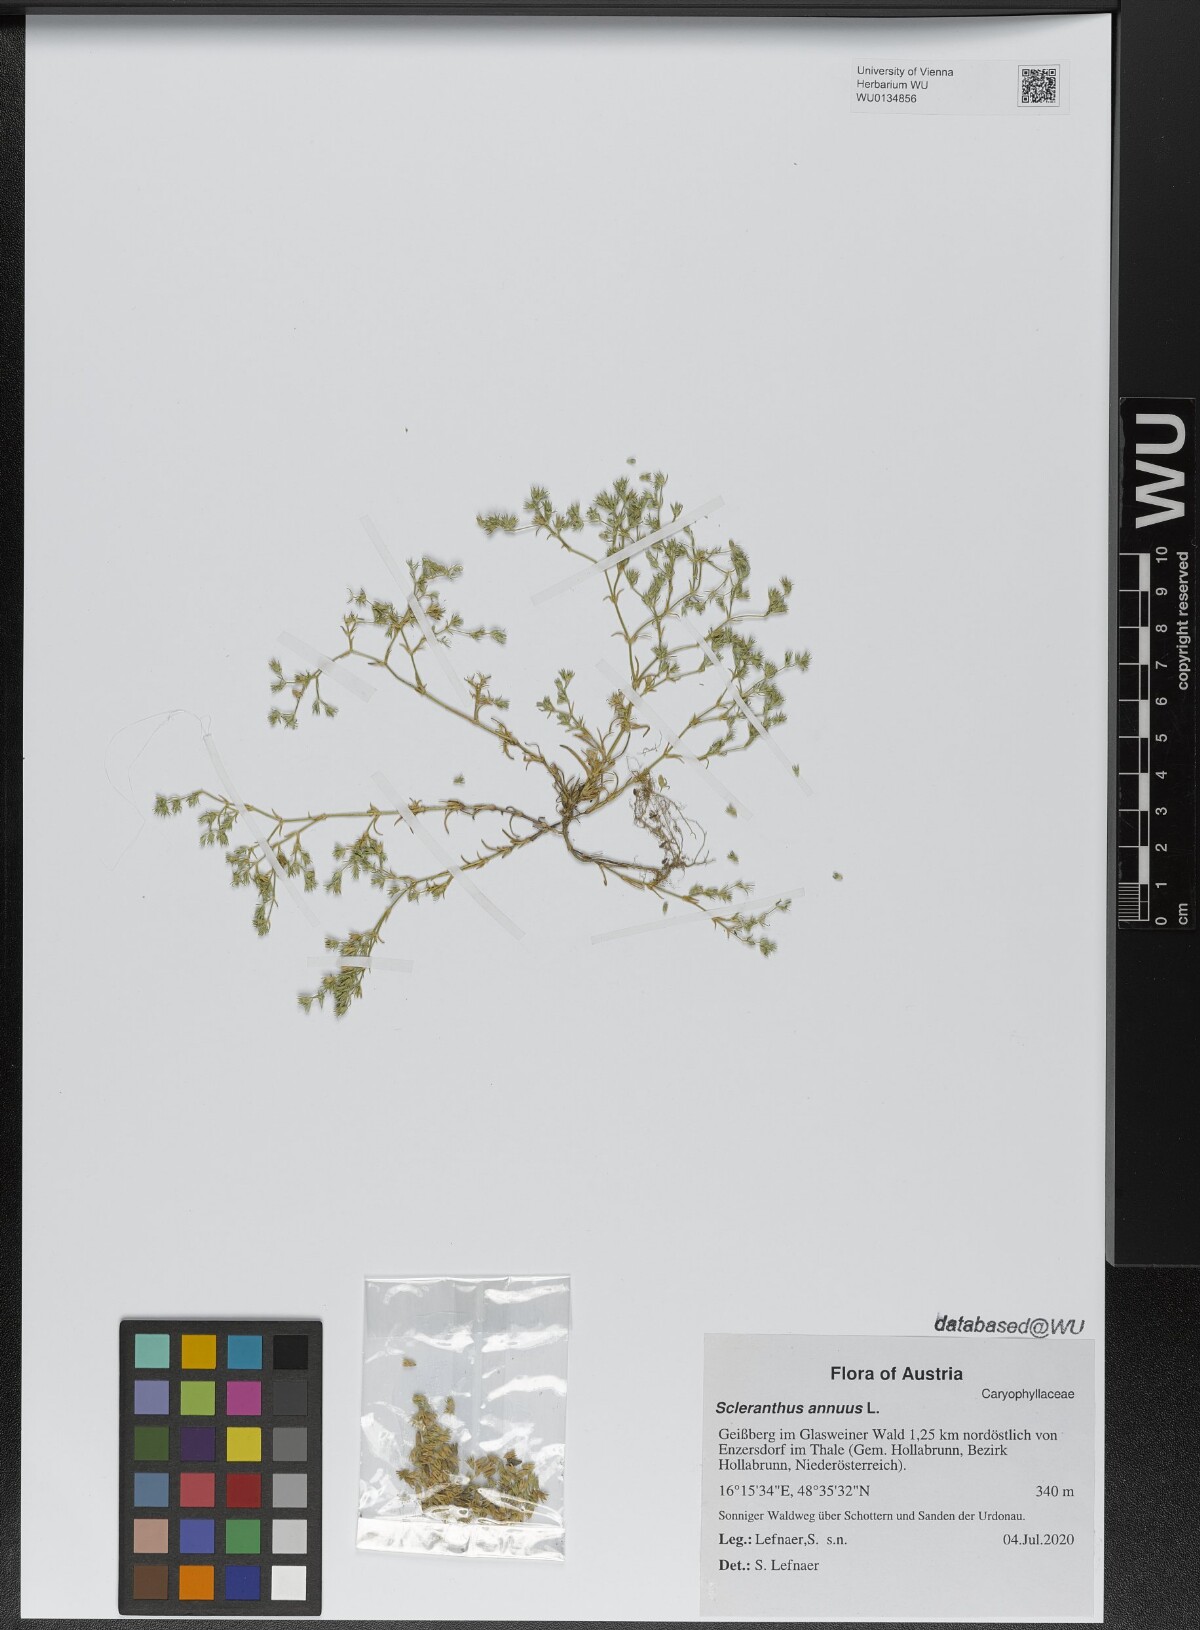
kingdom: Plantae
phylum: Tracheophyta
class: Magnoliopsida
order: Caryophyllales
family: Caryophyllaceae
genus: Scleranthus
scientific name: Scleranthus annuus
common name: Annual knawel
